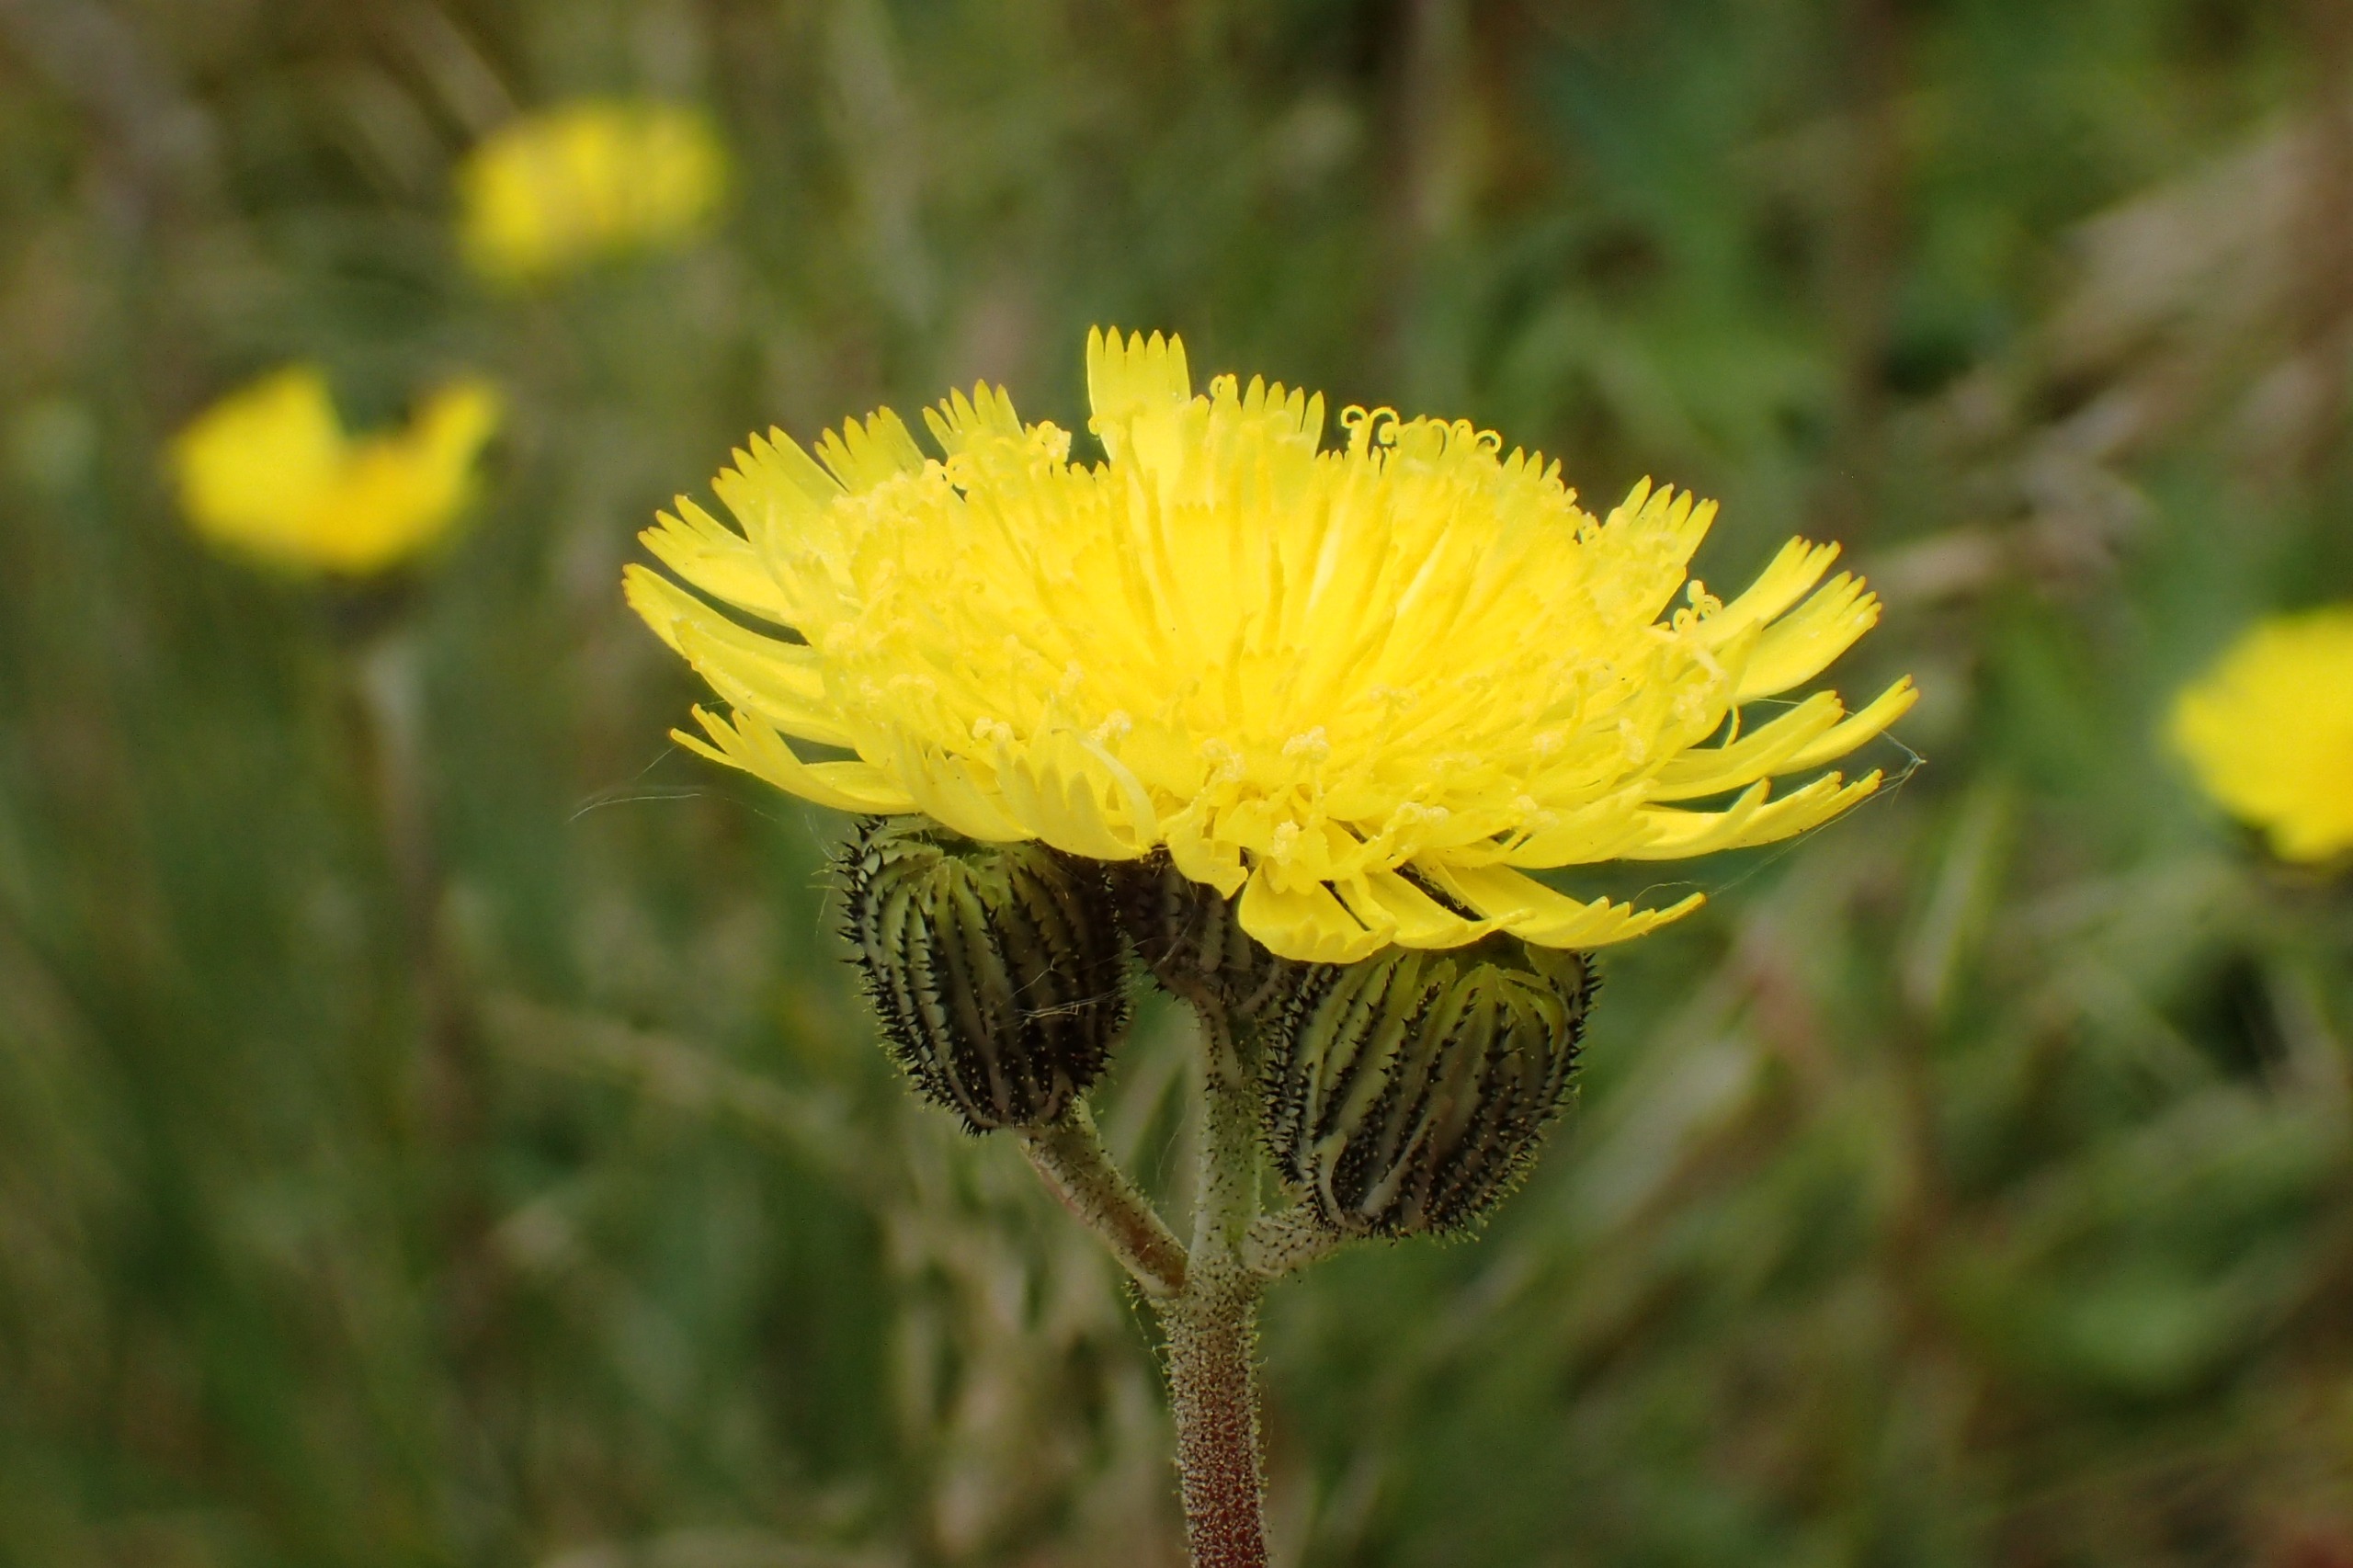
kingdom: Plantae
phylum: Tracheophyta
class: Magnoliopsida
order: Asterales
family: Asteraceae
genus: Pilosella
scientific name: Pilosella lactucella
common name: Lancetbladet høgeurt
